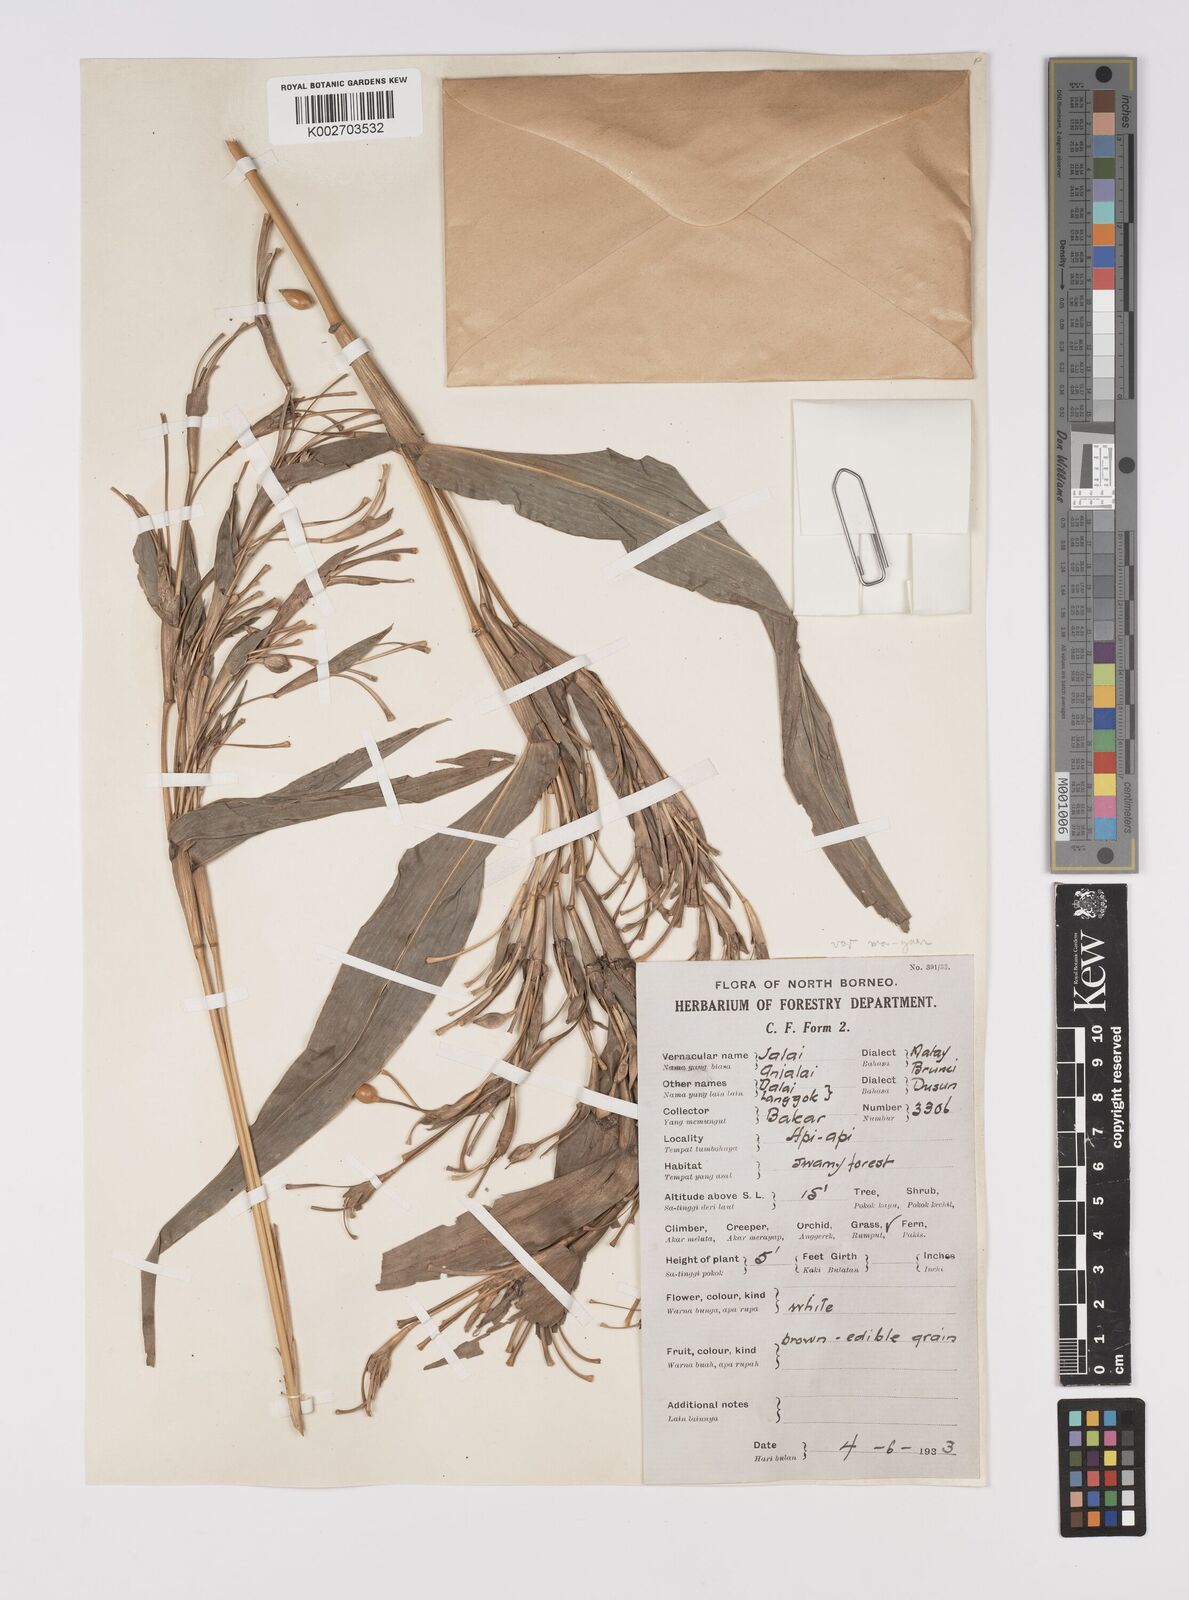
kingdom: Plantae
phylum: Tracheophyta
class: Liliopsida
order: Poales
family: Poaceae
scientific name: Poaceae
